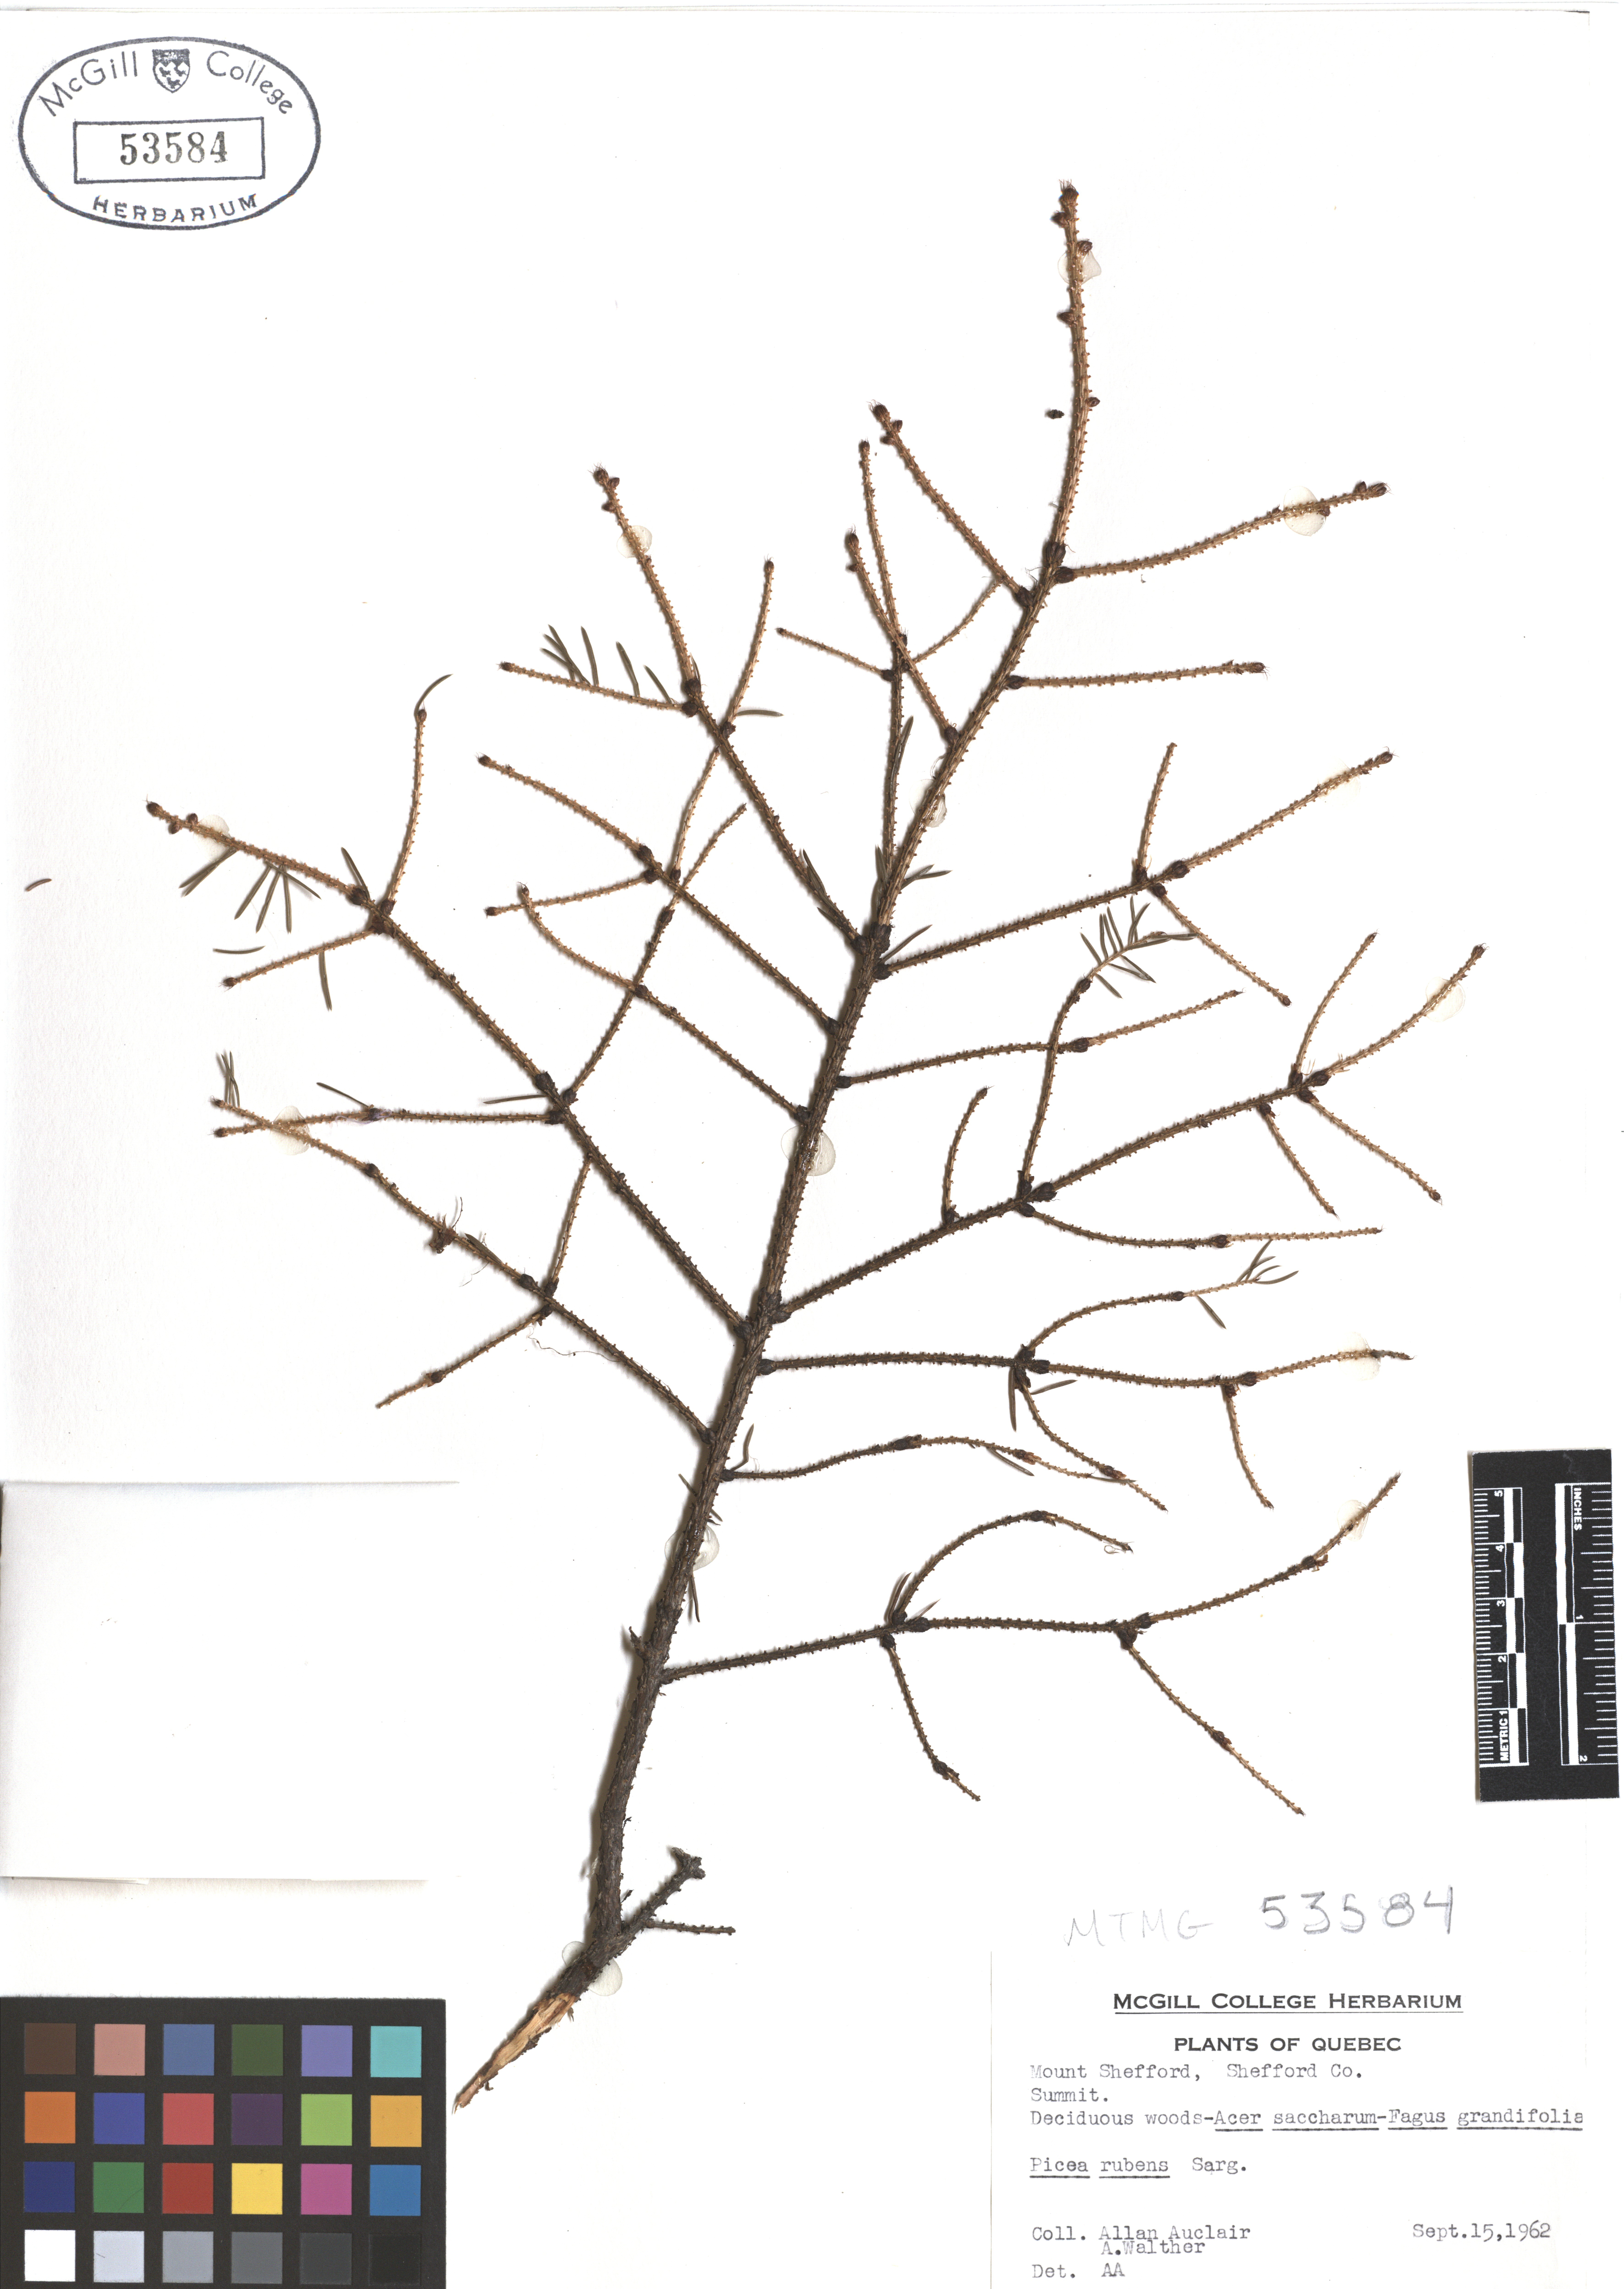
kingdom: Plantae
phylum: Tracheophyta
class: Pinopsida
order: Pinales
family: Pinaceae
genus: Picea
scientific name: Picea rubens
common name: Red spruce
